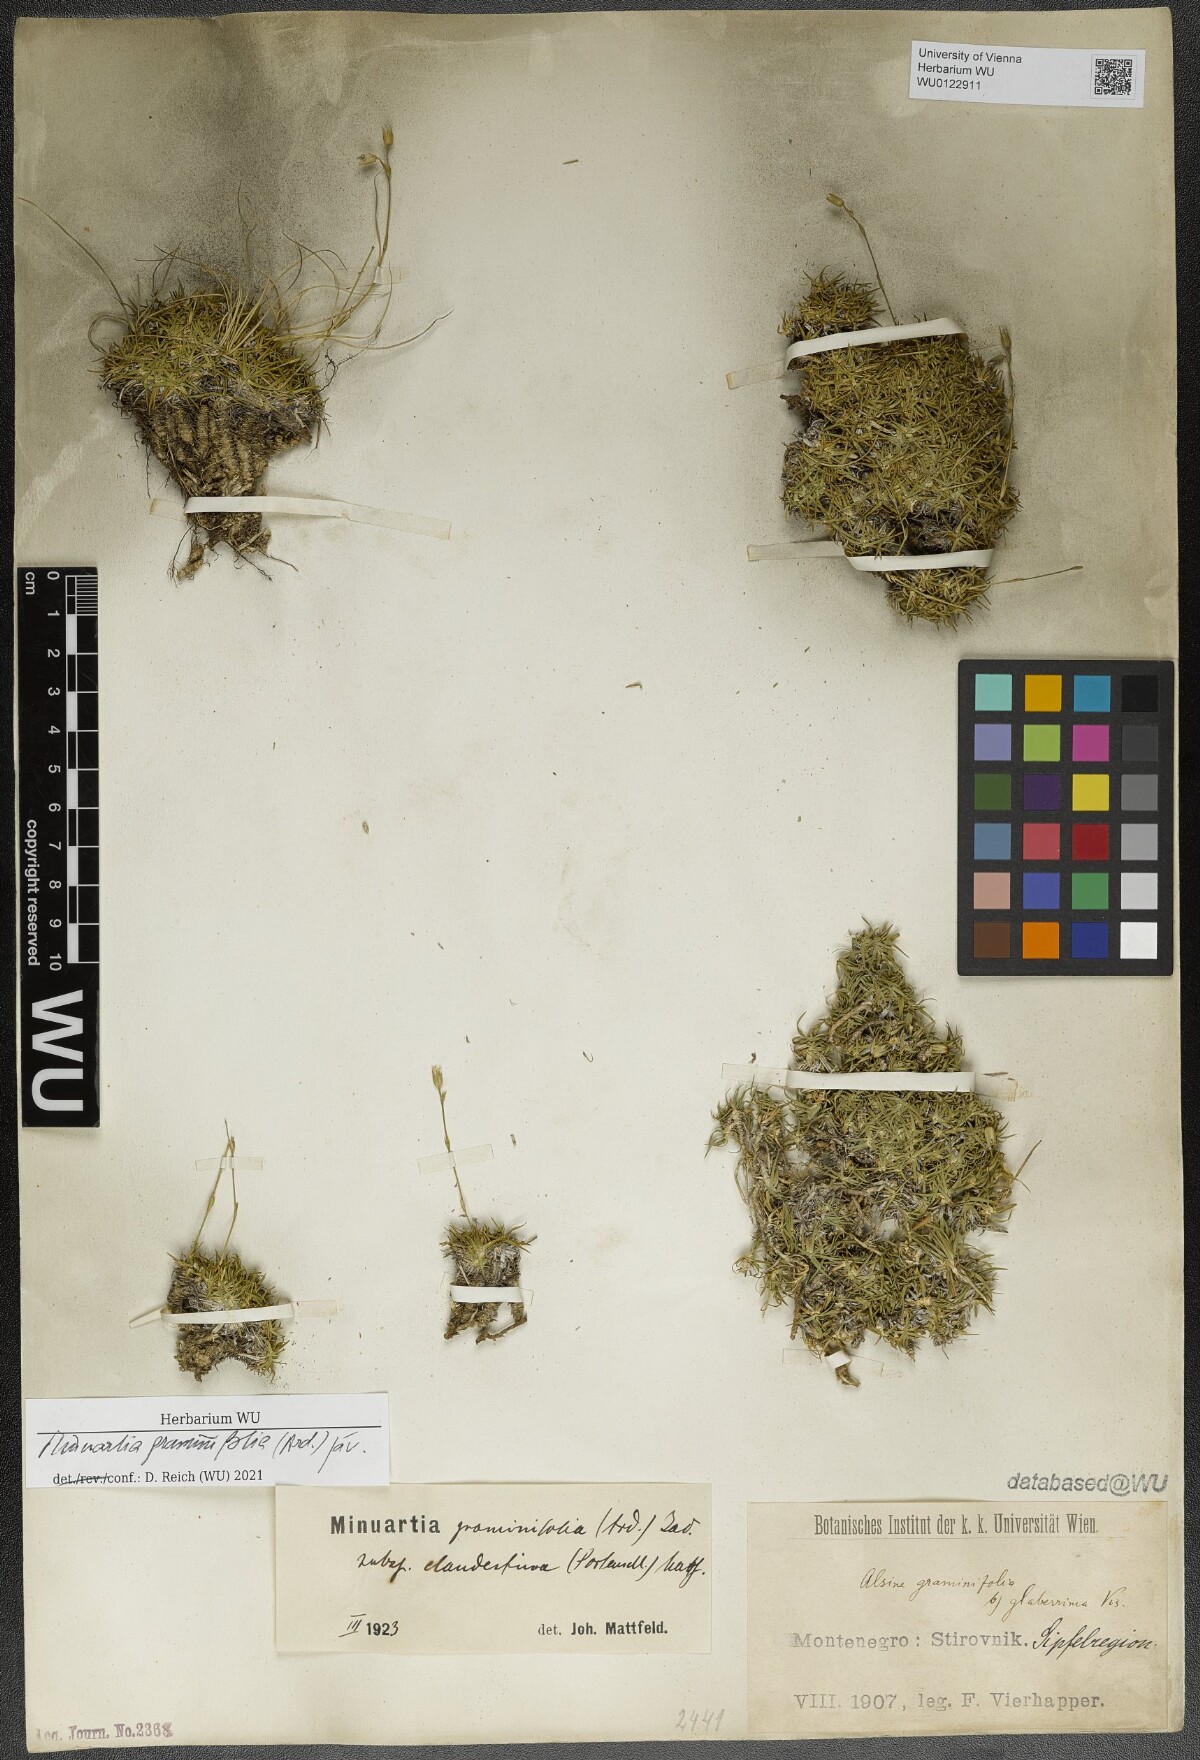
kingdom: Plantae
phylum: Tracheophyta
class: Magnoliopsida
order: Caryophyllales
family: Caryophyllaceae
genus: Mcneillia
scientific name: Mcneillia graminifolia
